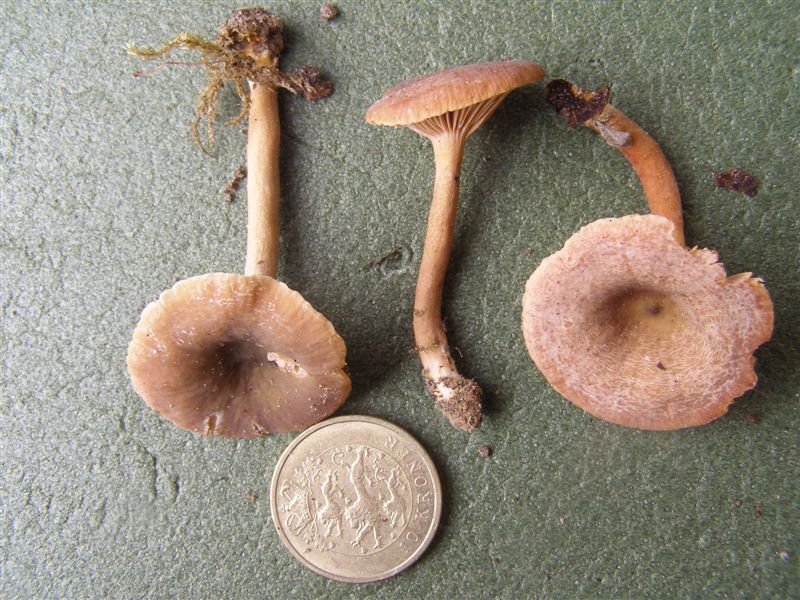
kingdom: Fungi
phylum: Basidiomycota
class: Agaricomycetes
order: Russulales
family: Russulaceae
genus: Lactarius
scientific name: Lactarius obscuratus
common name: elle-mælkehat
